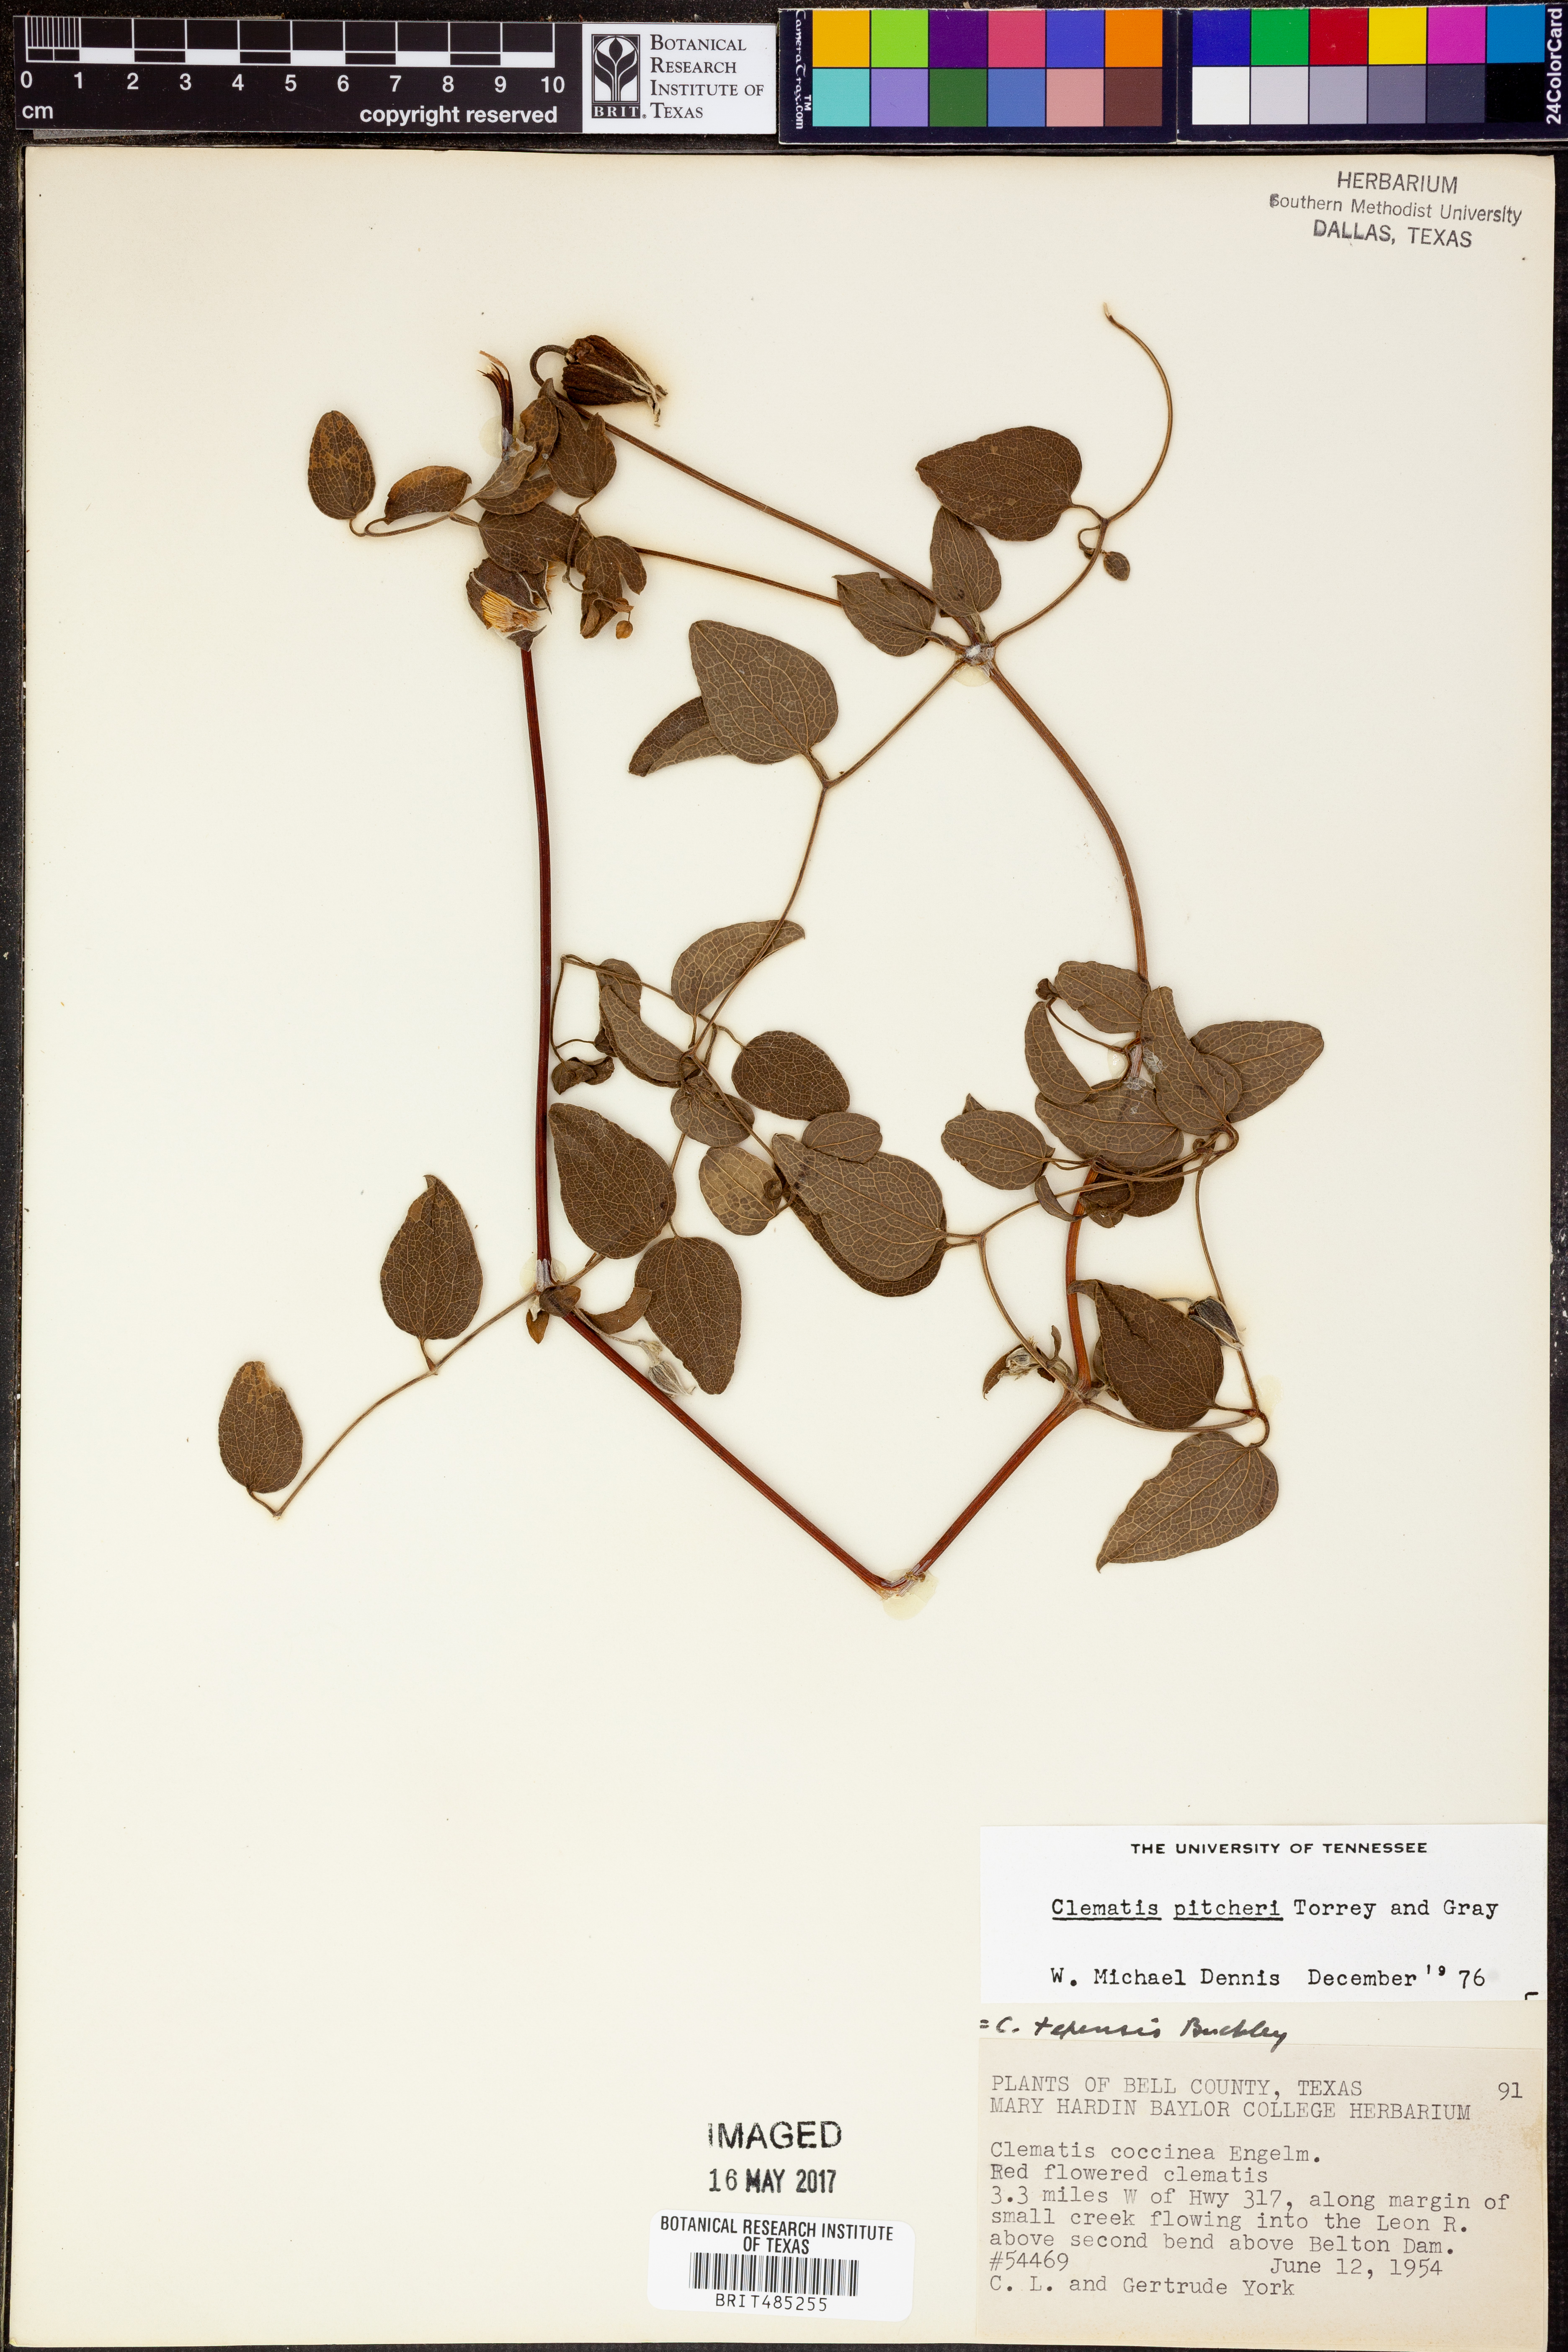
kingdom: Plantae
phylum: Tracheophyta
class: Magnoliopsida
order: Ranunculales
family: Ranunculaceae
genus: Clematis
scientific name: Clematis viorna
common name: Leather-flower
